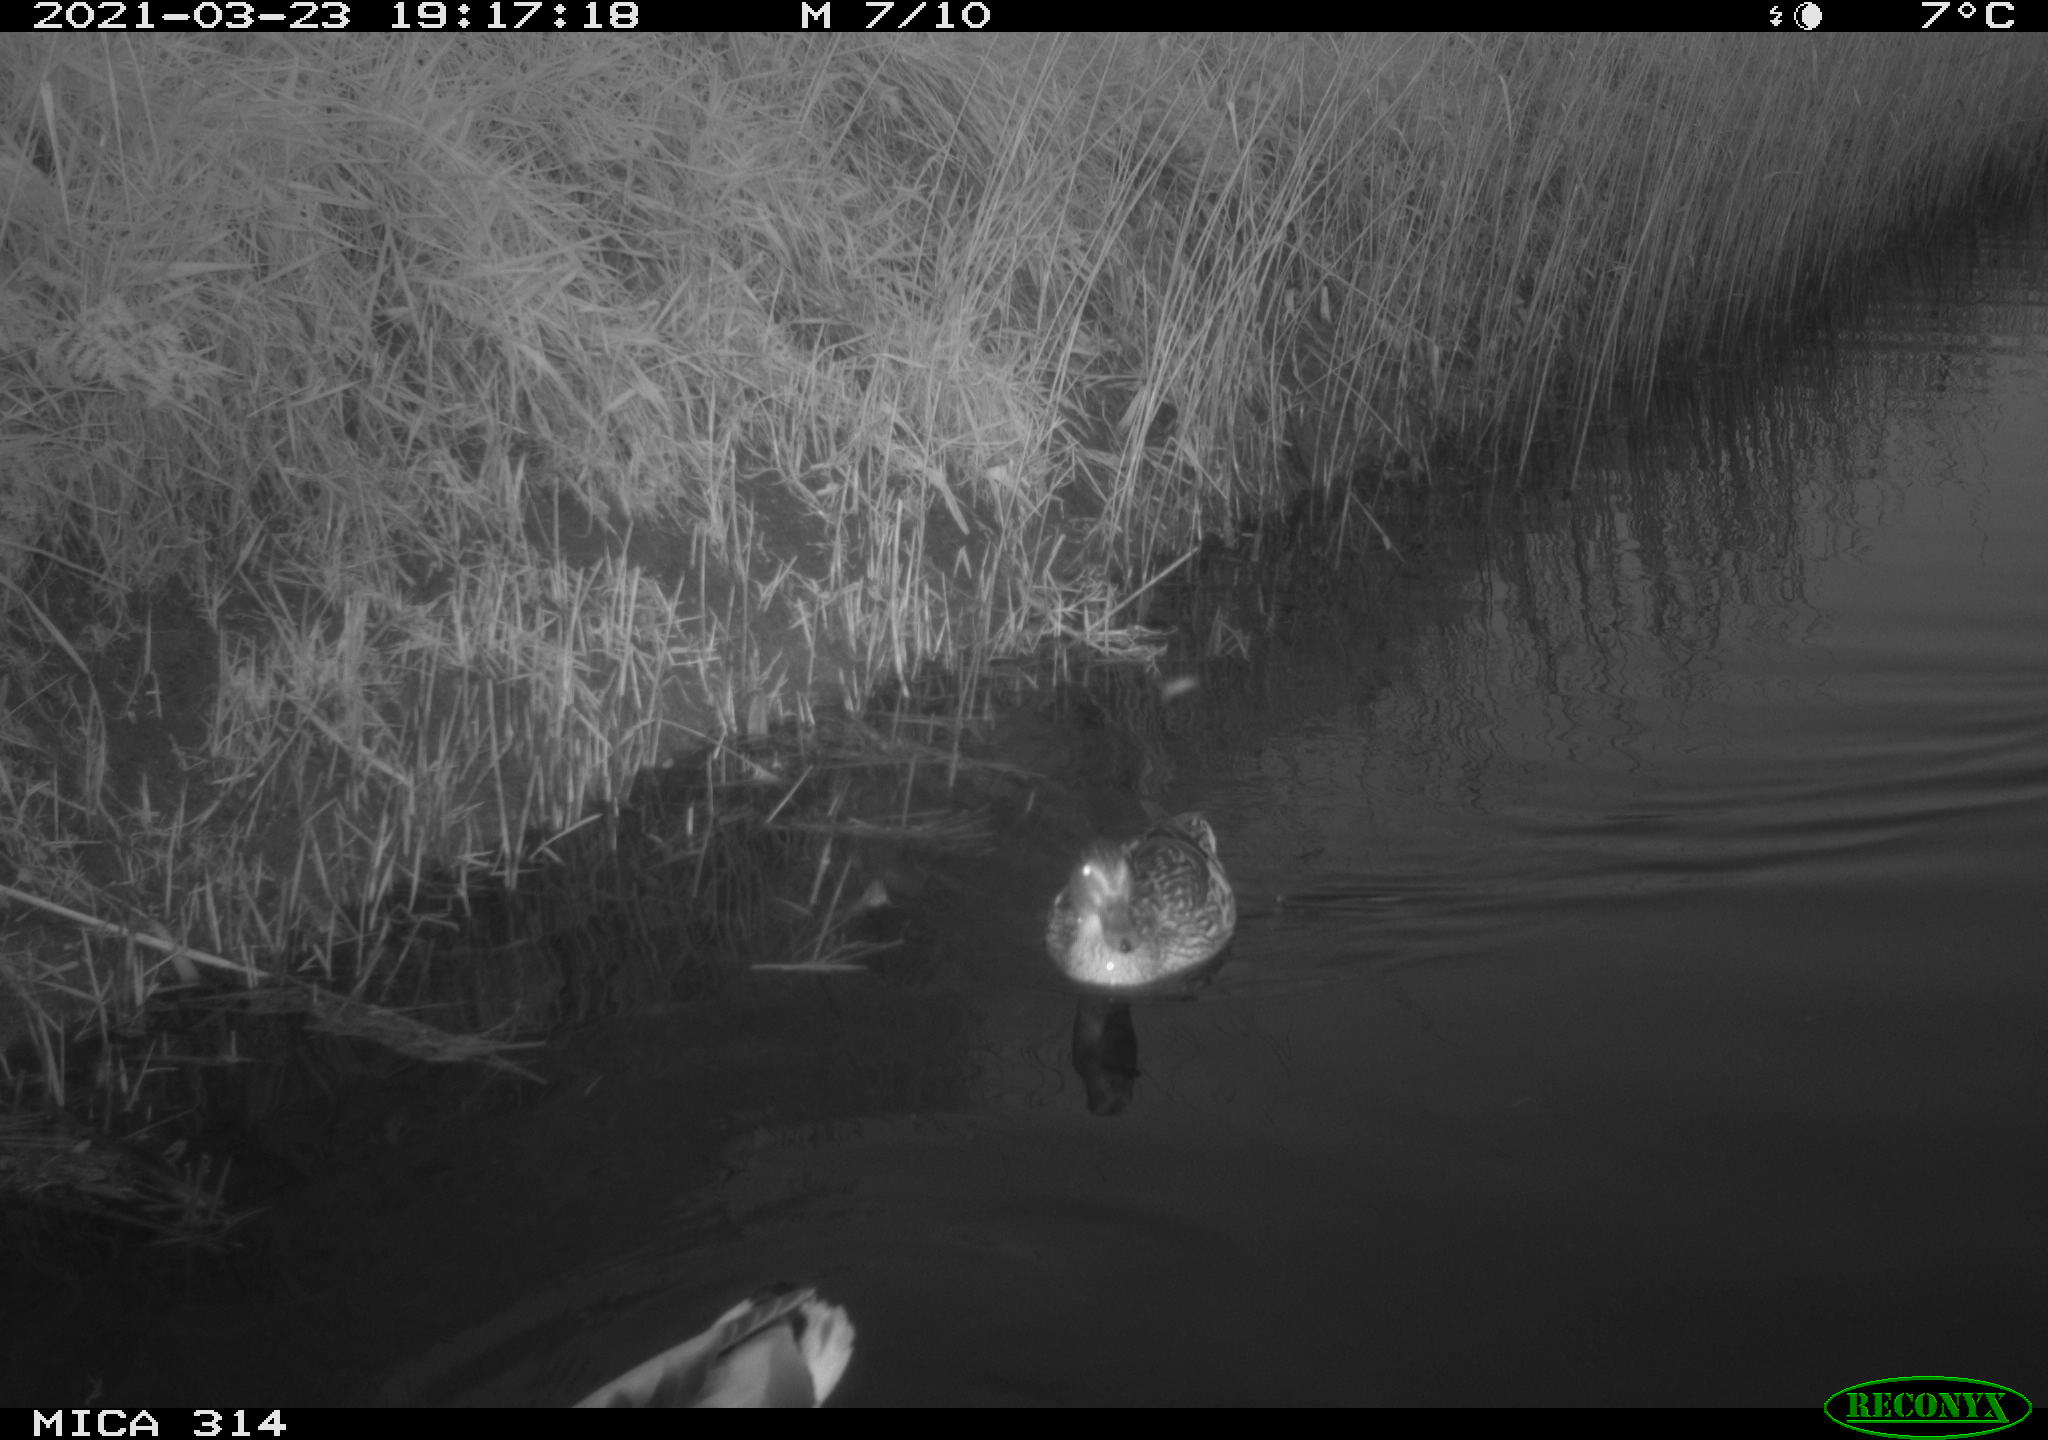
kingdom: Animalia
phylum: Chordata
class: Aves
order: Anseriformes
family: Anatidae
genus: Anas
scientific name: Anas platyrhynchos
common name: Mallard
